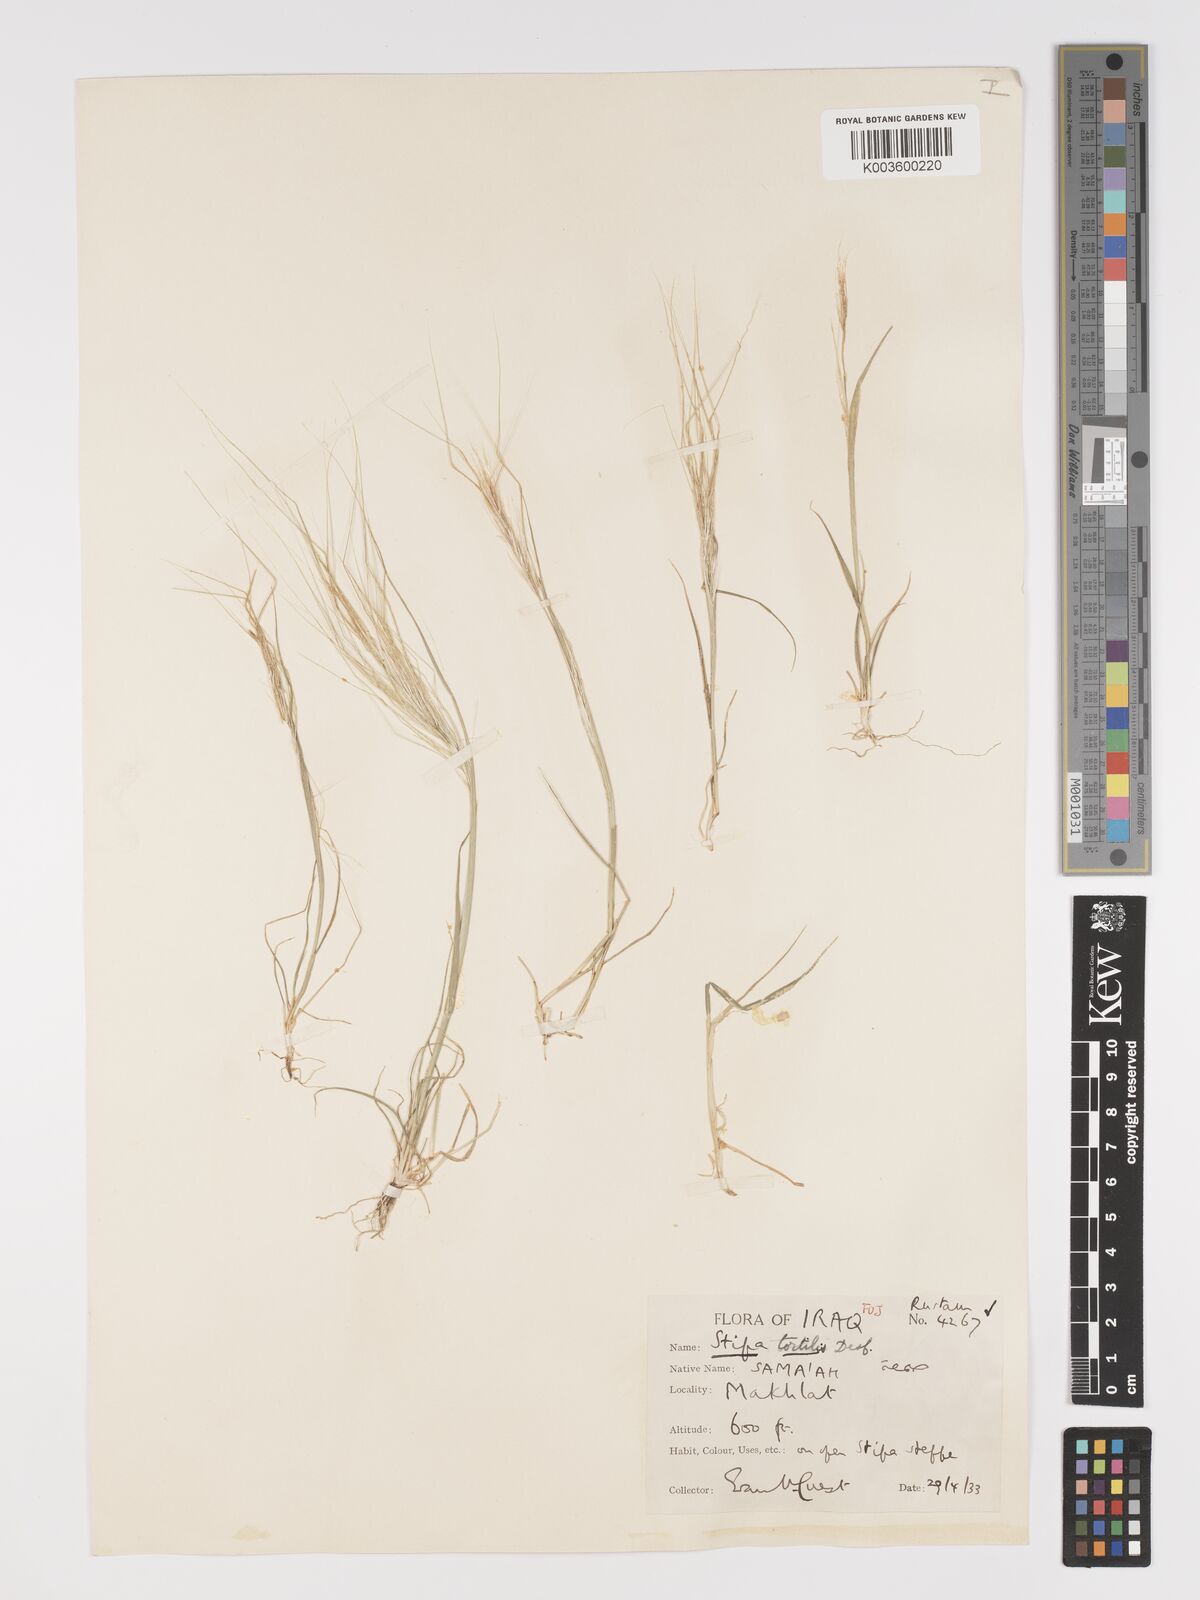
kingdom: Plantae
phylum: Tracheophyta
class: Liliopsida
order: Poales
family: Poaceae
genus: Stipellula
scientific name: Stipellula capensis
